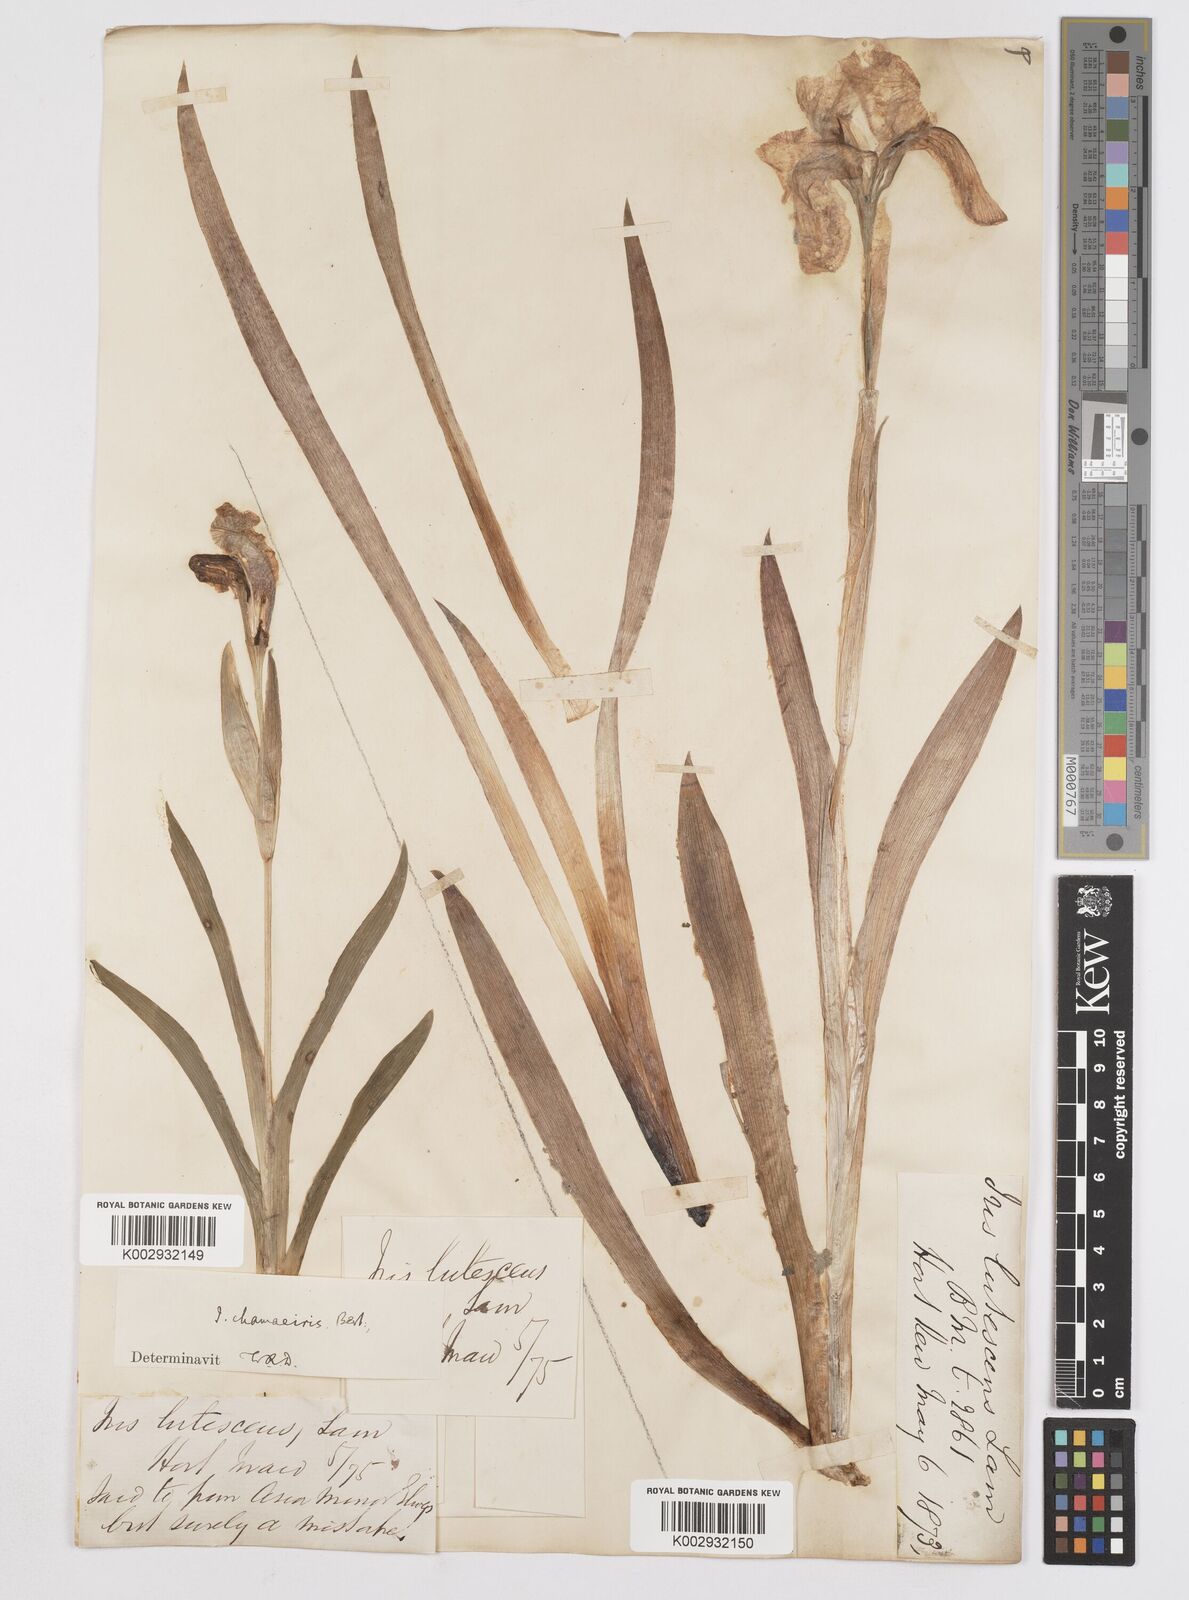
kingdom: Plantae
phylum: Tracheophyta
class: Liliopsida
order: Asparagales
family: Iridaceae
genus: Iris
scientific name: Iris lutescens
